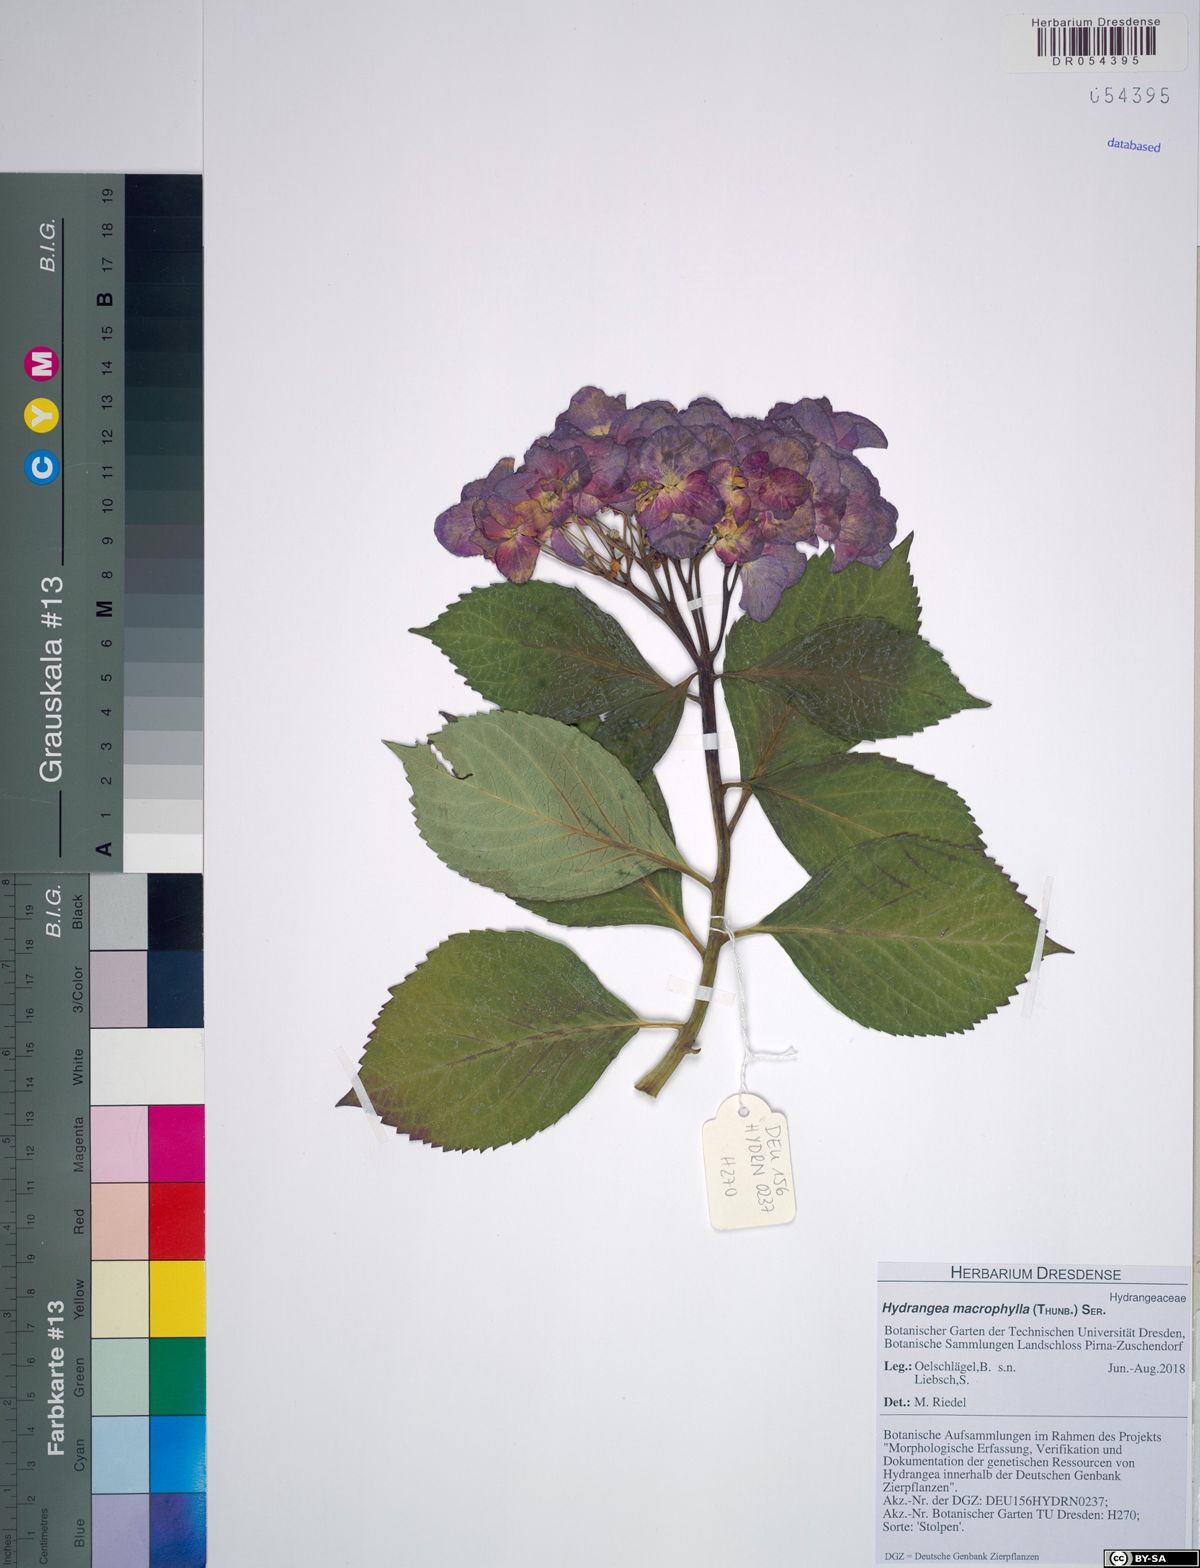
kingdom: Plantae
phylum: Tracheophyta
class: Magnoliopsida
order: Cornales
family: Hydrangeaceae
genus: Hydrangea
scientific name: Hydrangea macrophylla
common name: Hydrangea
